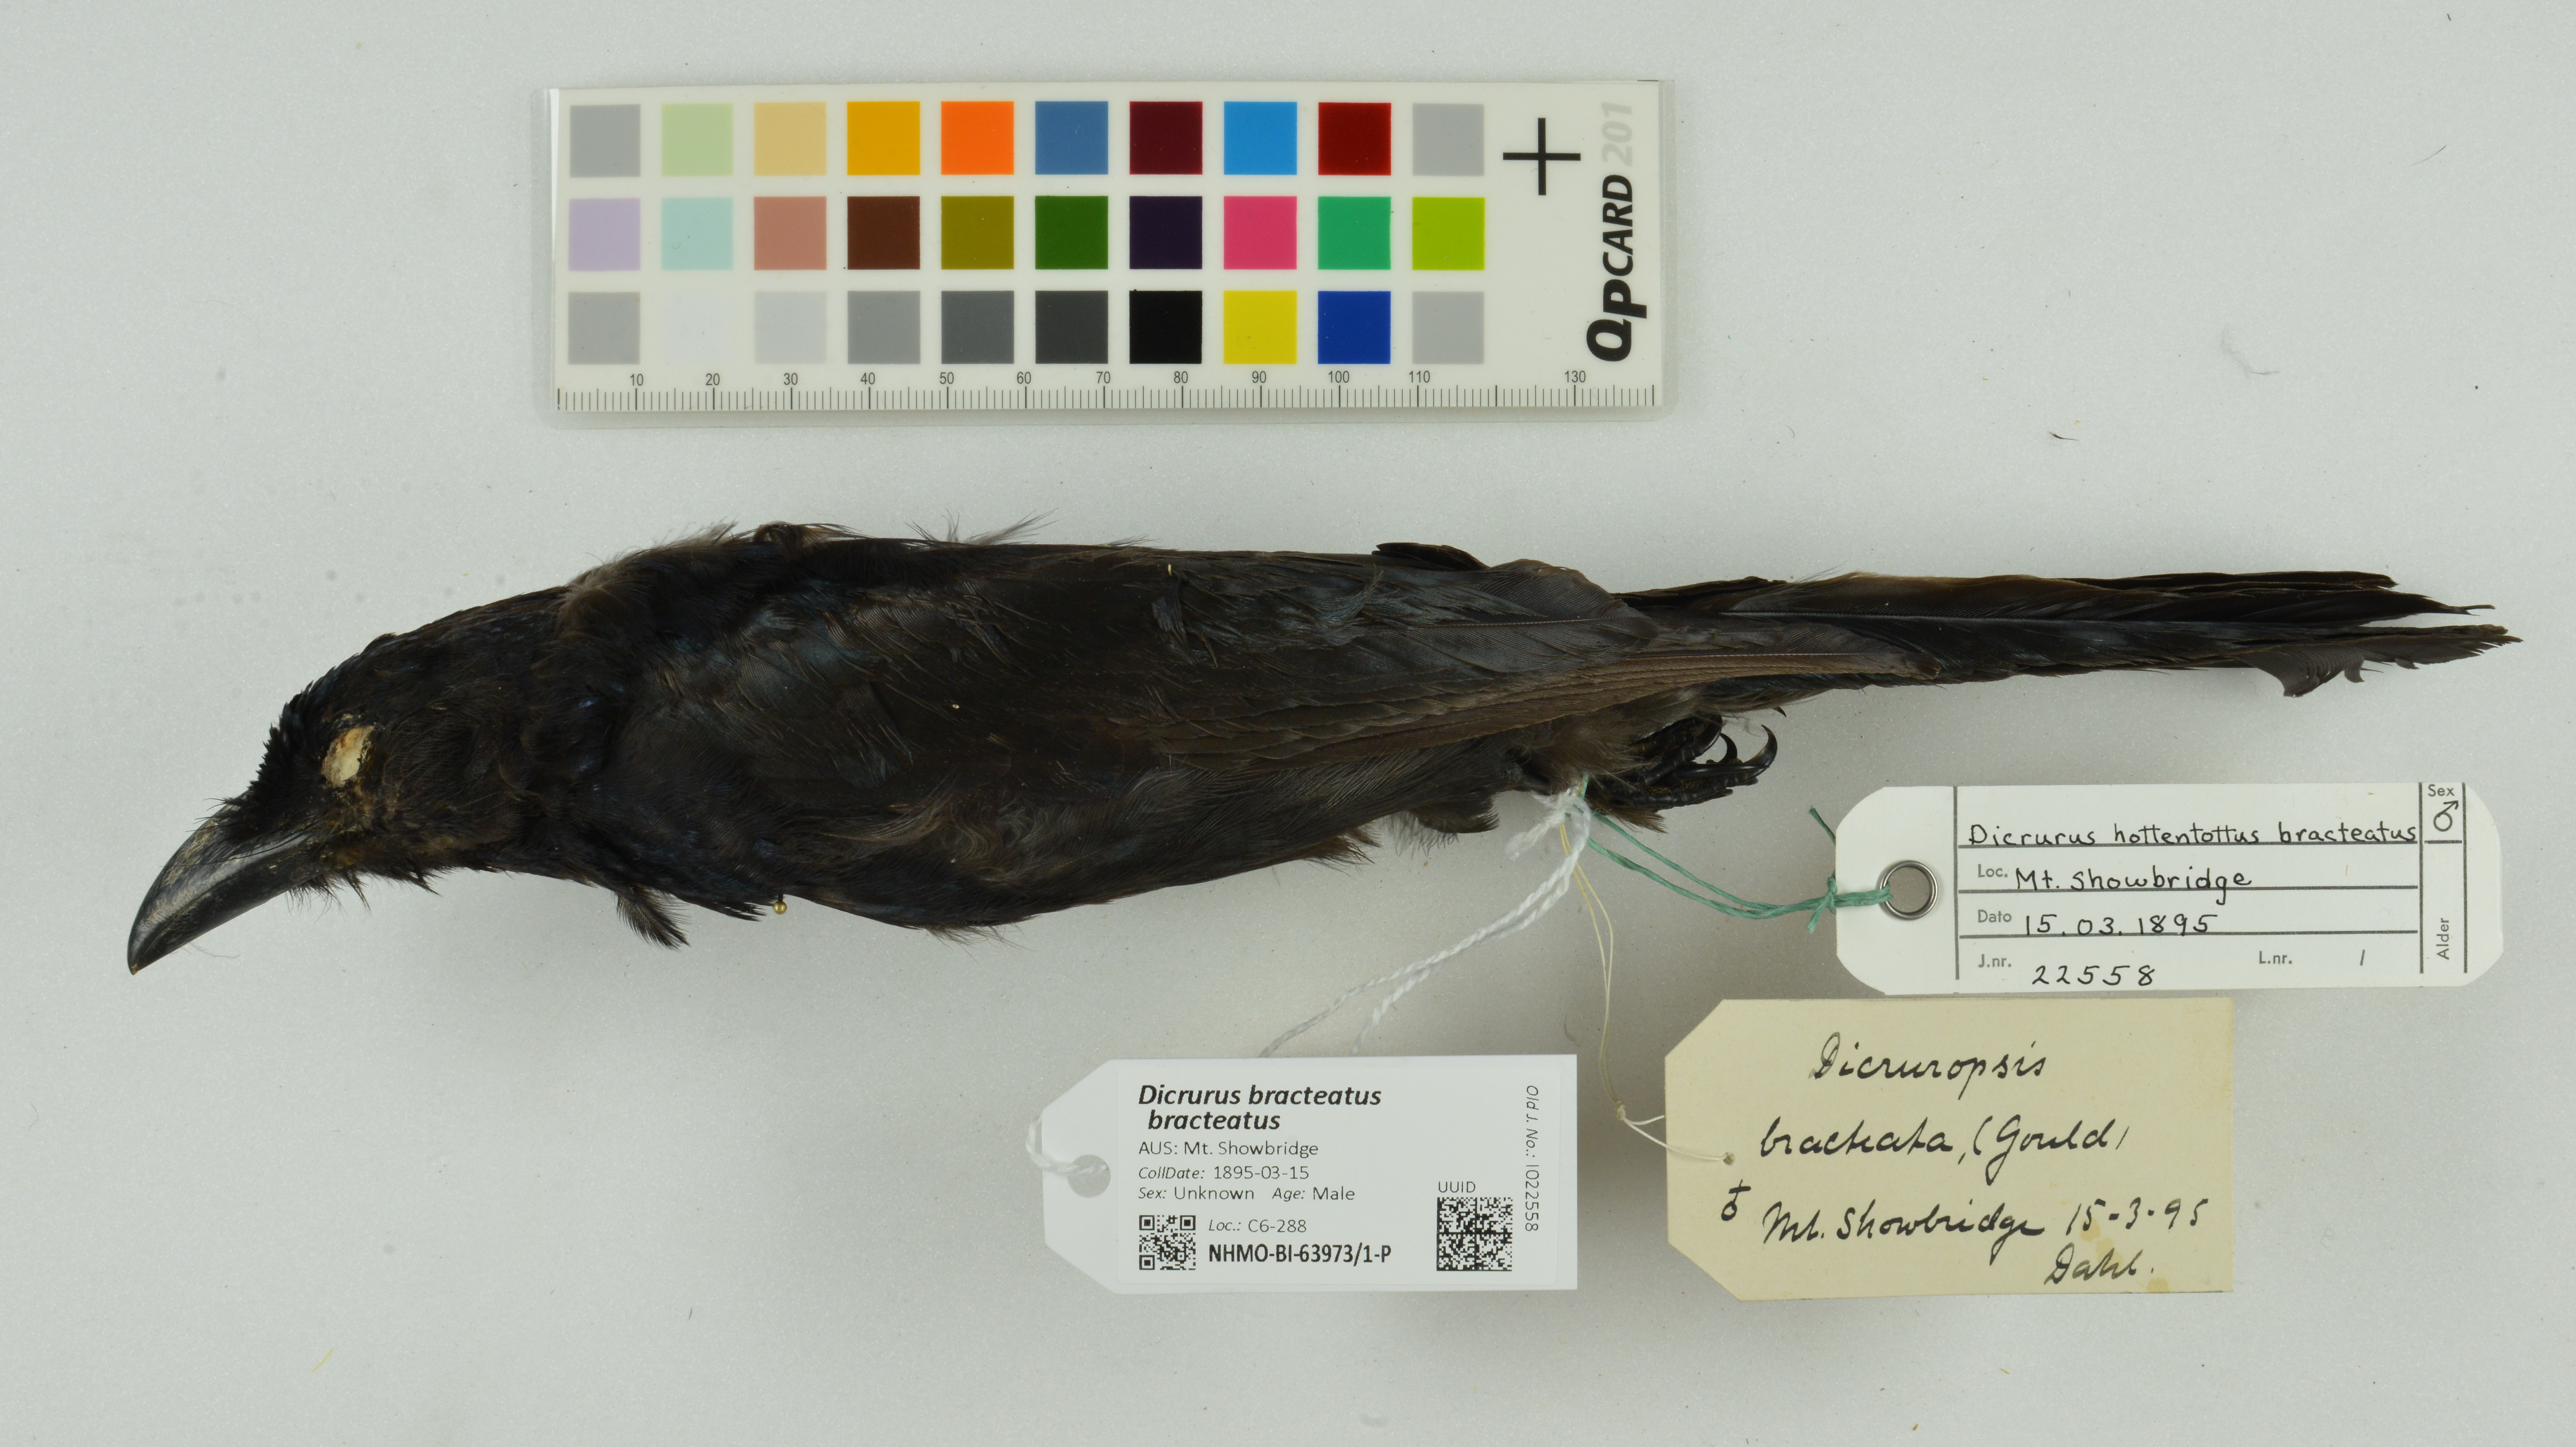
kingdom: Animalia
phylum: Chordata
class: Aves
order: Passeriformes
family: Dicruridae
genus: Dicrurus
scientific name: Dicrurus bracteatus
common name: Spangled drongo
